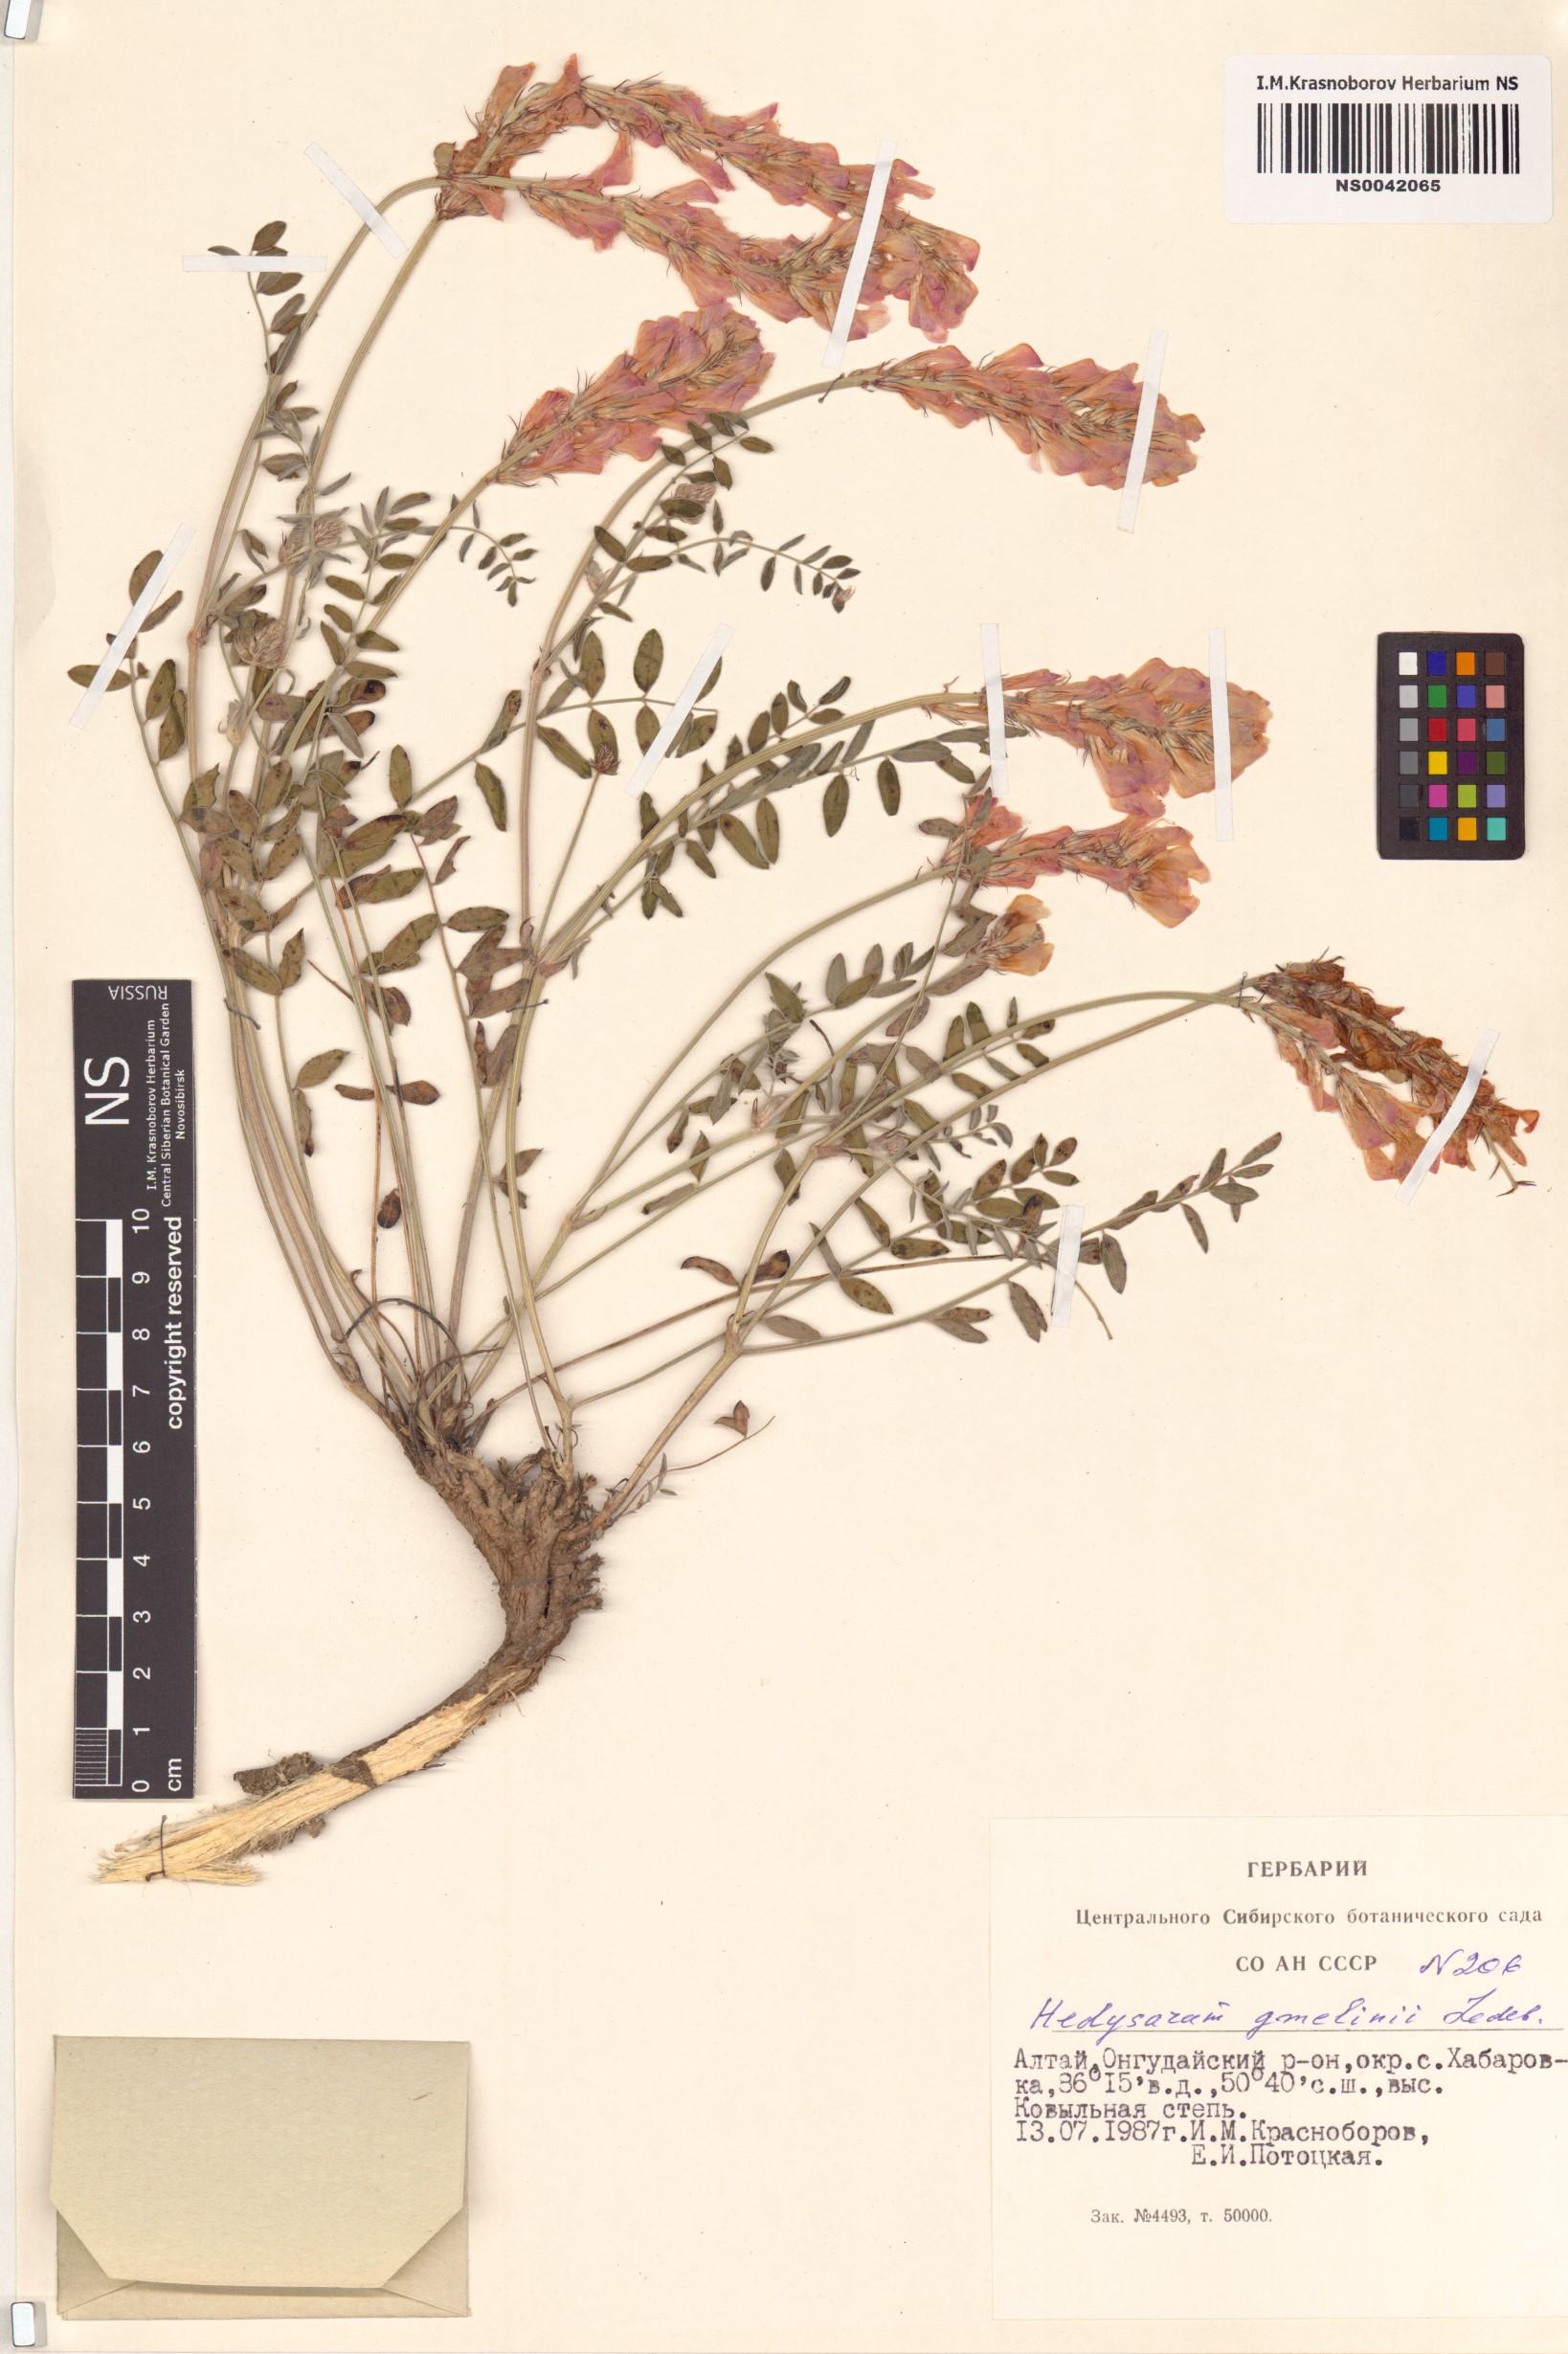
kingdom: Plantae
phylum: Tracheophyta
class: Magnoliopsida
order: Fabales
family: Fabaceae
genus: Hedysarum
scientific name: Hedysarum gmelinii
